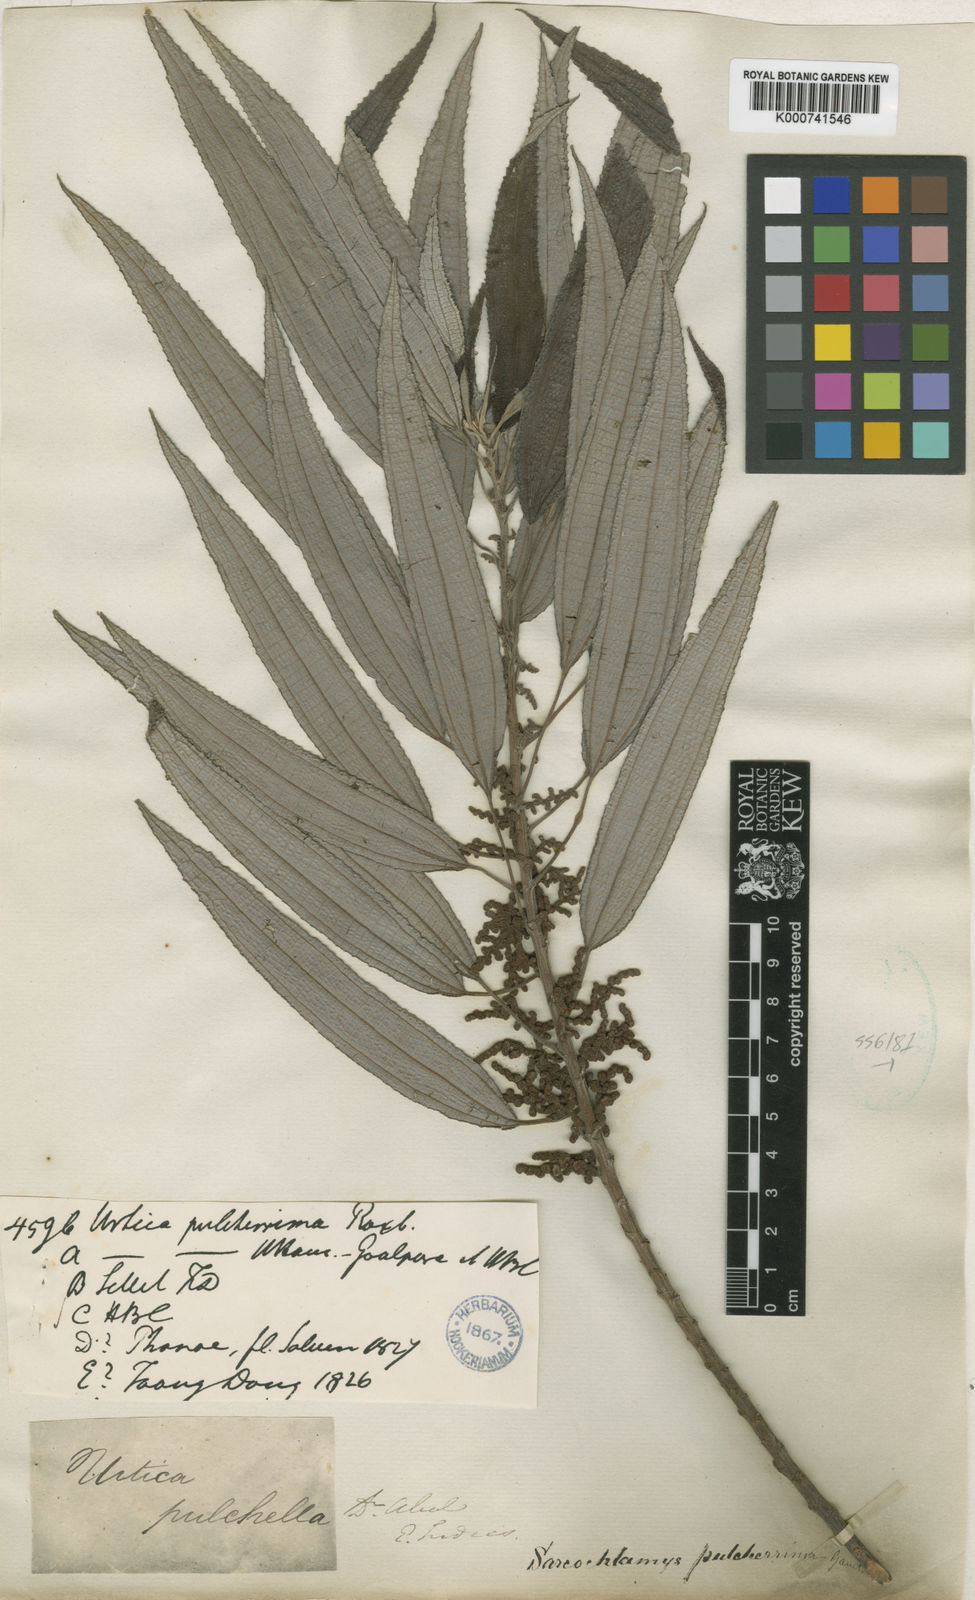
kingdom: Plantae
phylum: Tracheophyta
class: Magnoliopsida
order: Rosales
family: Urticaceae
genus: Sarcochlamys
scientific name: Sarcochlamys pulcherrima
